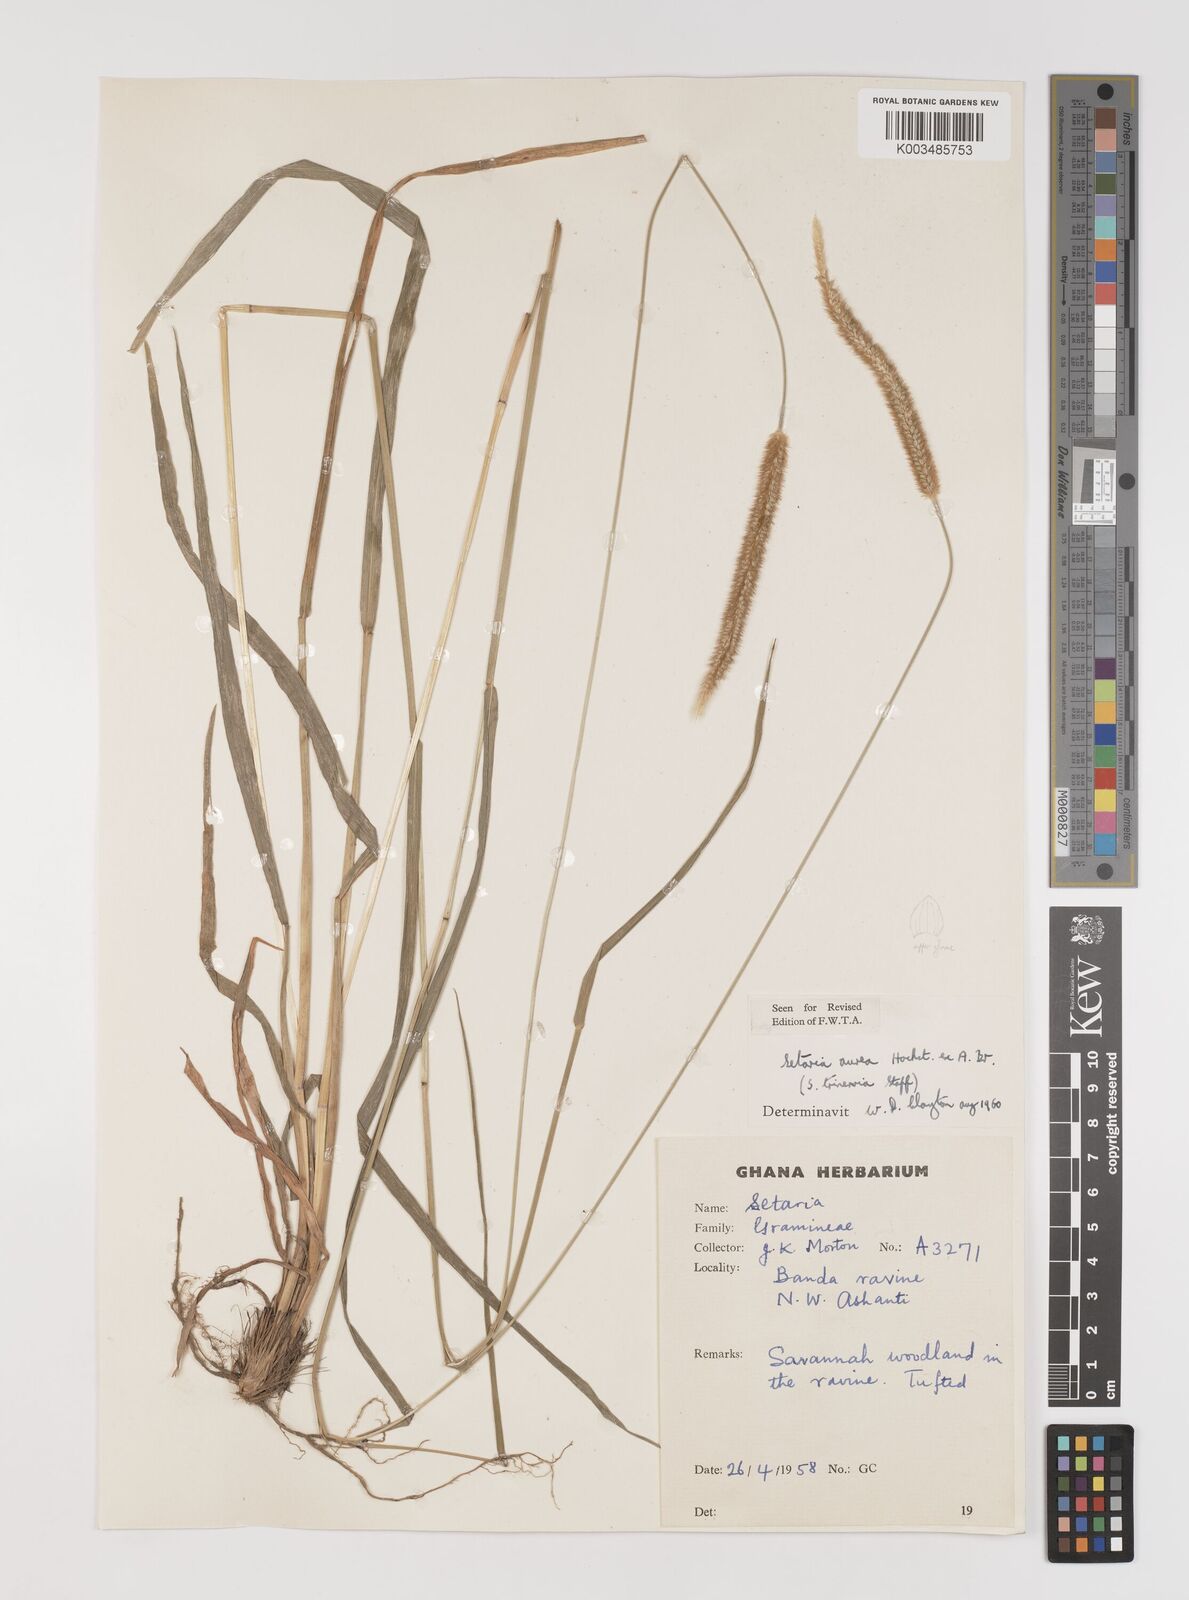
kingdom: Plantae
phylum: Tracheophyta
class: Liliopsida
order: Poales
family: Poaceae
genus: Setaria
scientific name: Setaria sphacelata
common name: African bristlegrass
